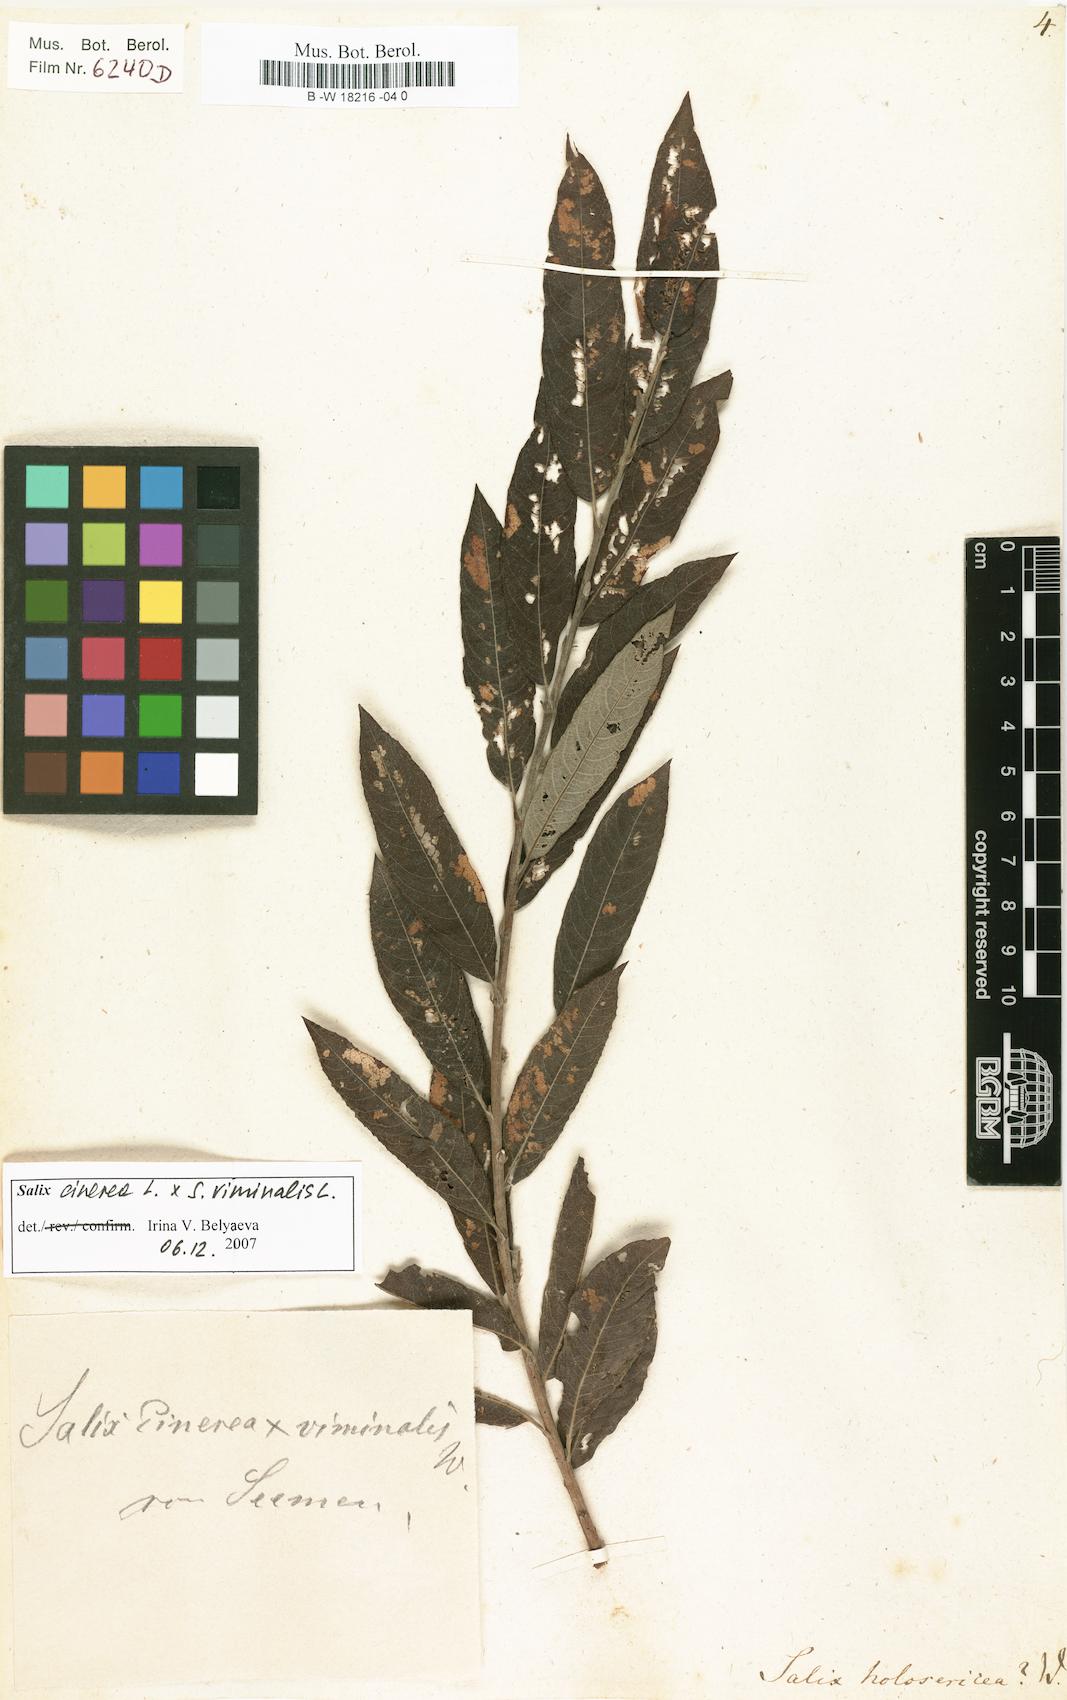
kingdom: Plantae
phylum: Tracheophyta
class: Magnoliopsida
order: Malpighiales
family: Salicaceae
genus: Salix
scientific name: Salix holosericea
